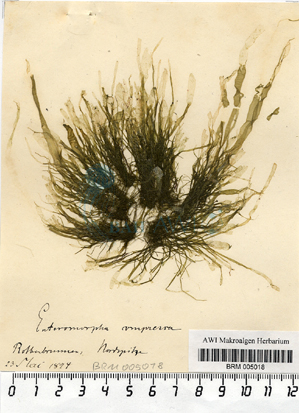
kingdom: Plantae
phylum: Chlorophyta
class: Ulvophyceae
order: Ulvales
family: Ulvaceae
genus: Ulva
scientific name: Ulva compressa
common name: Thread weed
